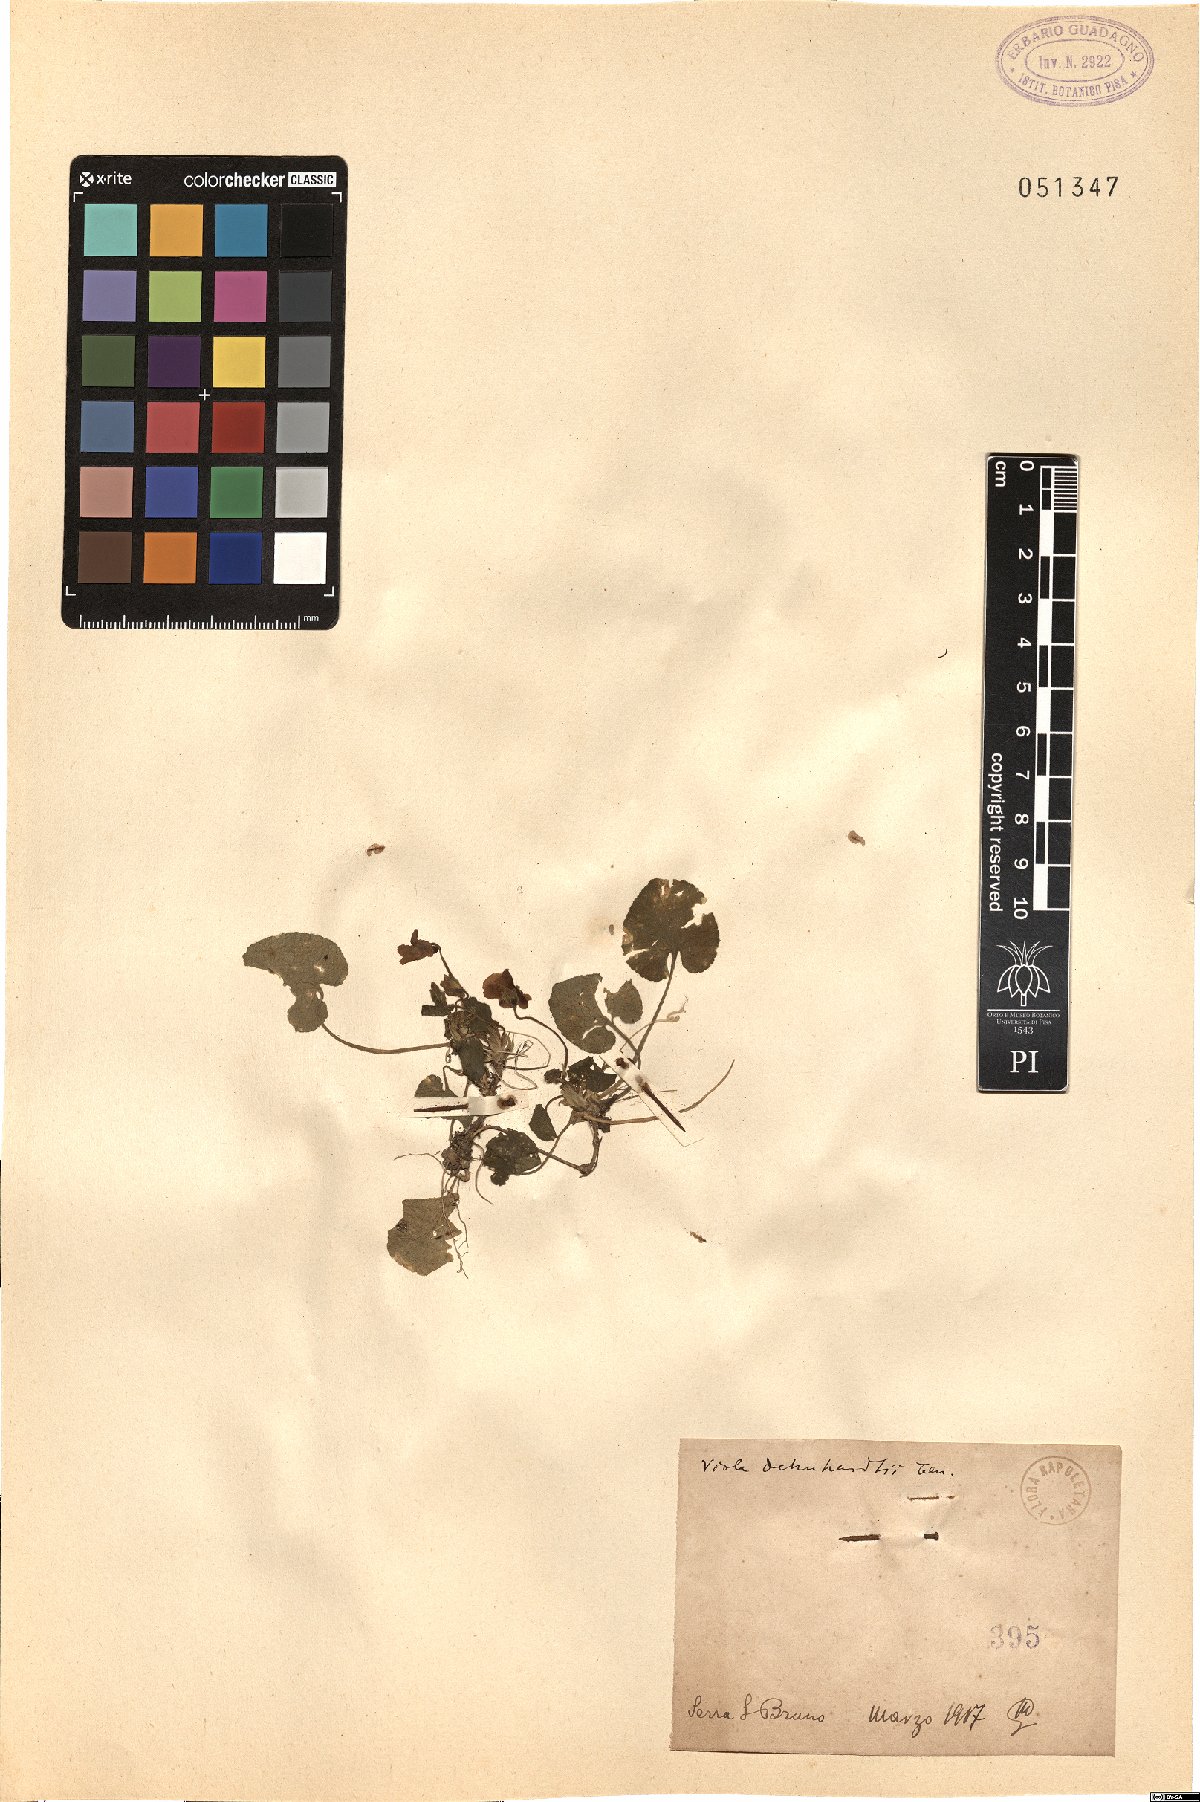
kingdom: Plantae
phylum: Tracheophyta
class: Magnoliopsida
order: Malpighiales
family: Violaceae
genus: Viola
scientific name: Viola alba
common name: White violet
